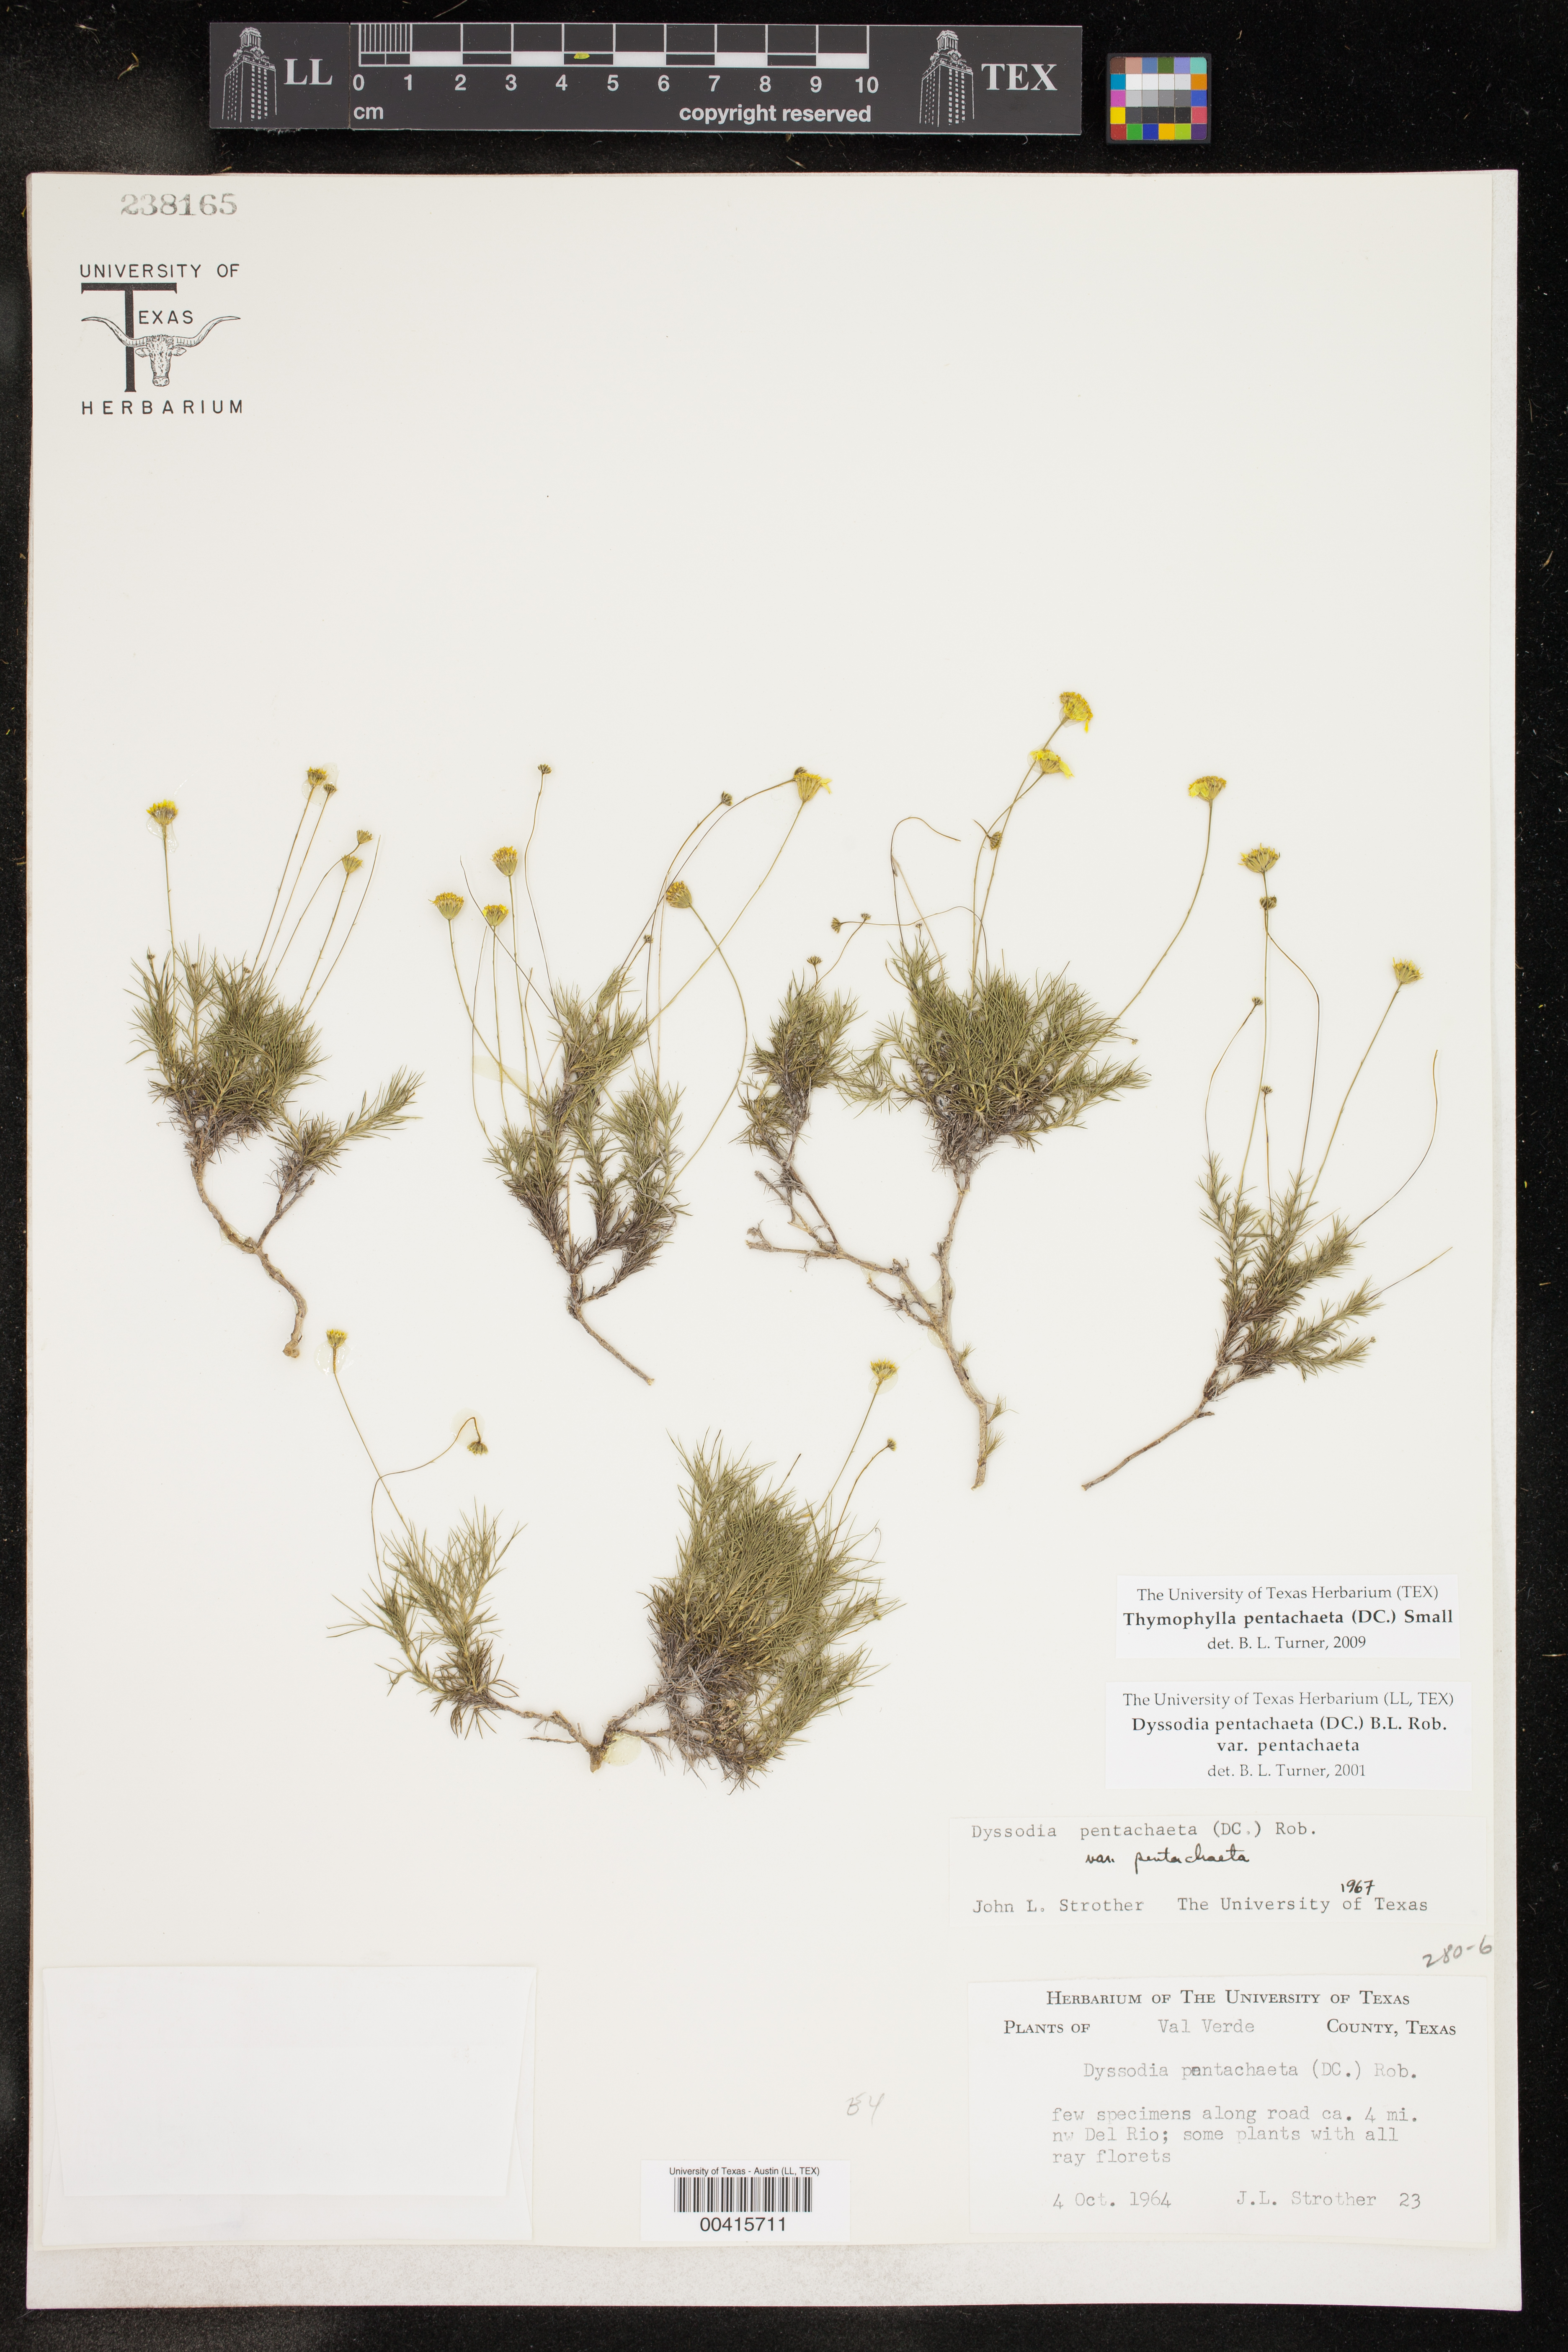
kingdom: Plantae
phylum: Tracheophyta
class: Magnoliopsida
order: Asterales
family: Asteraceae
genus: Thymophylla
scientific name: Thymophylla pentachaeta
